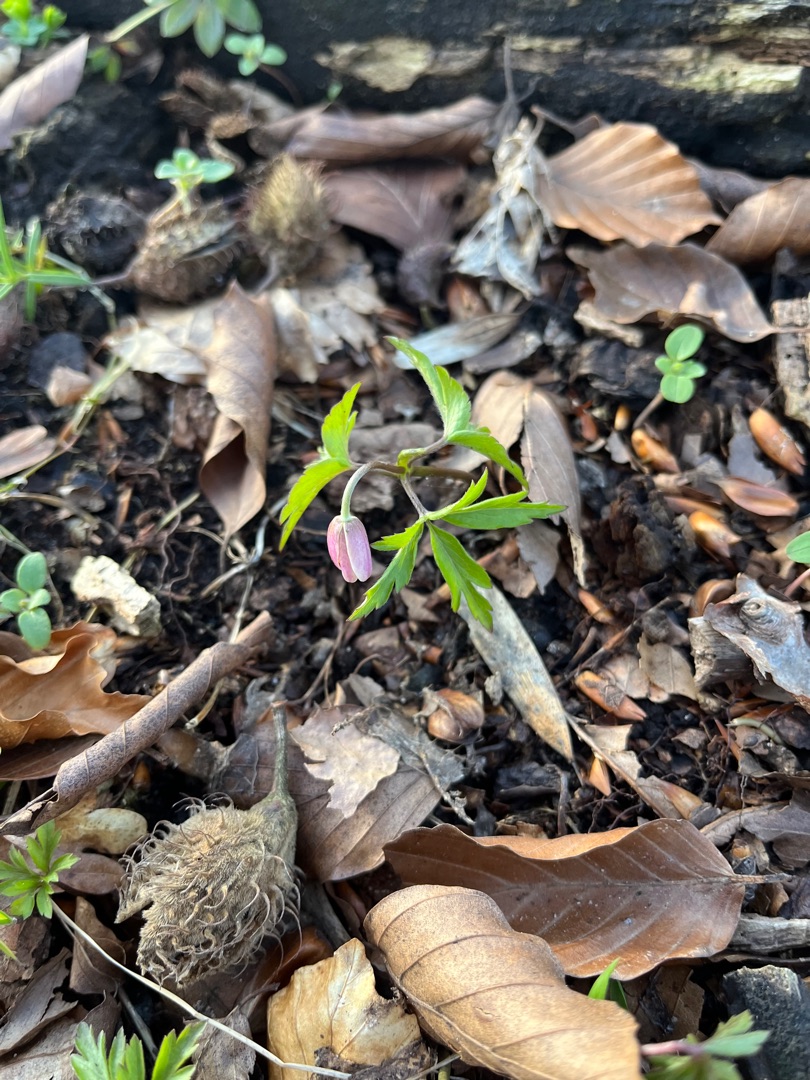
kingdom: Plantae
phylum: Tracheophyta
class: Magnoliopsida
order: Ranunculales
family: Ranunculaceae
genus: Anemone
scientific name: Anemone nemorosa
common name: Hvid anemone
